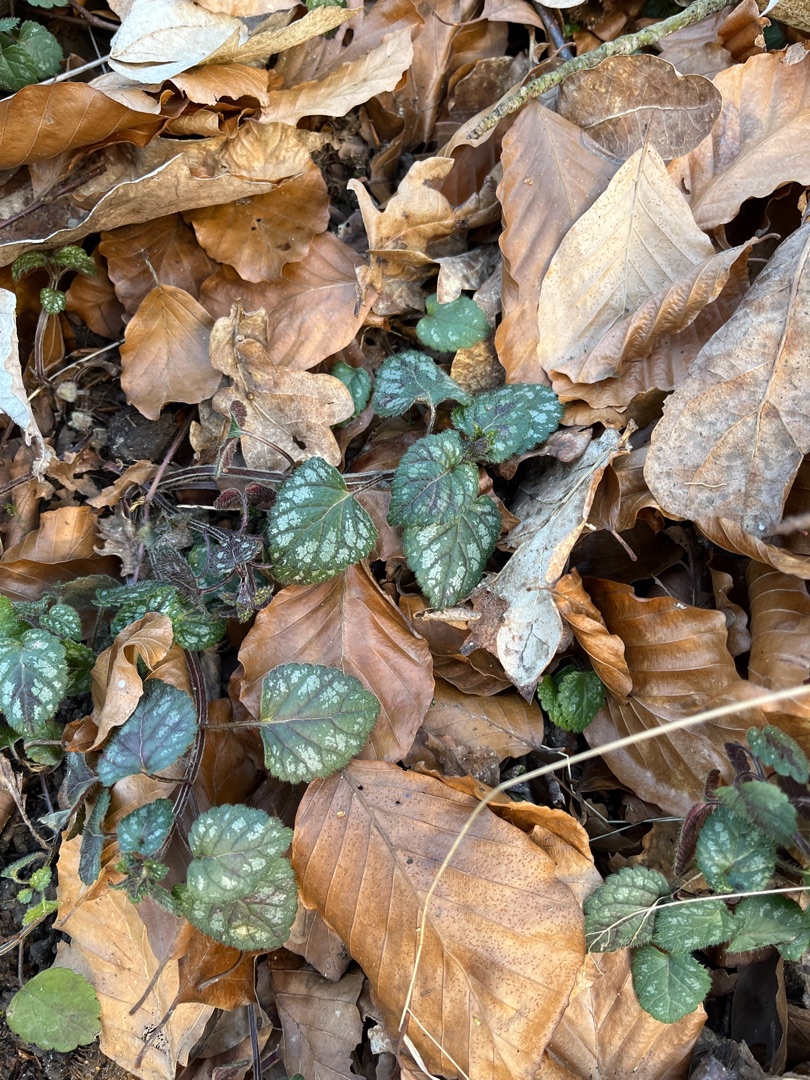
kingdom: Plantae
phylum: Tracheophyta
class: Magnoliopsida
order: Lamiales
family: Lamiaceae
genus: Lamium
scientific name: Lamium galeobdolon
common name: Guldnælde
